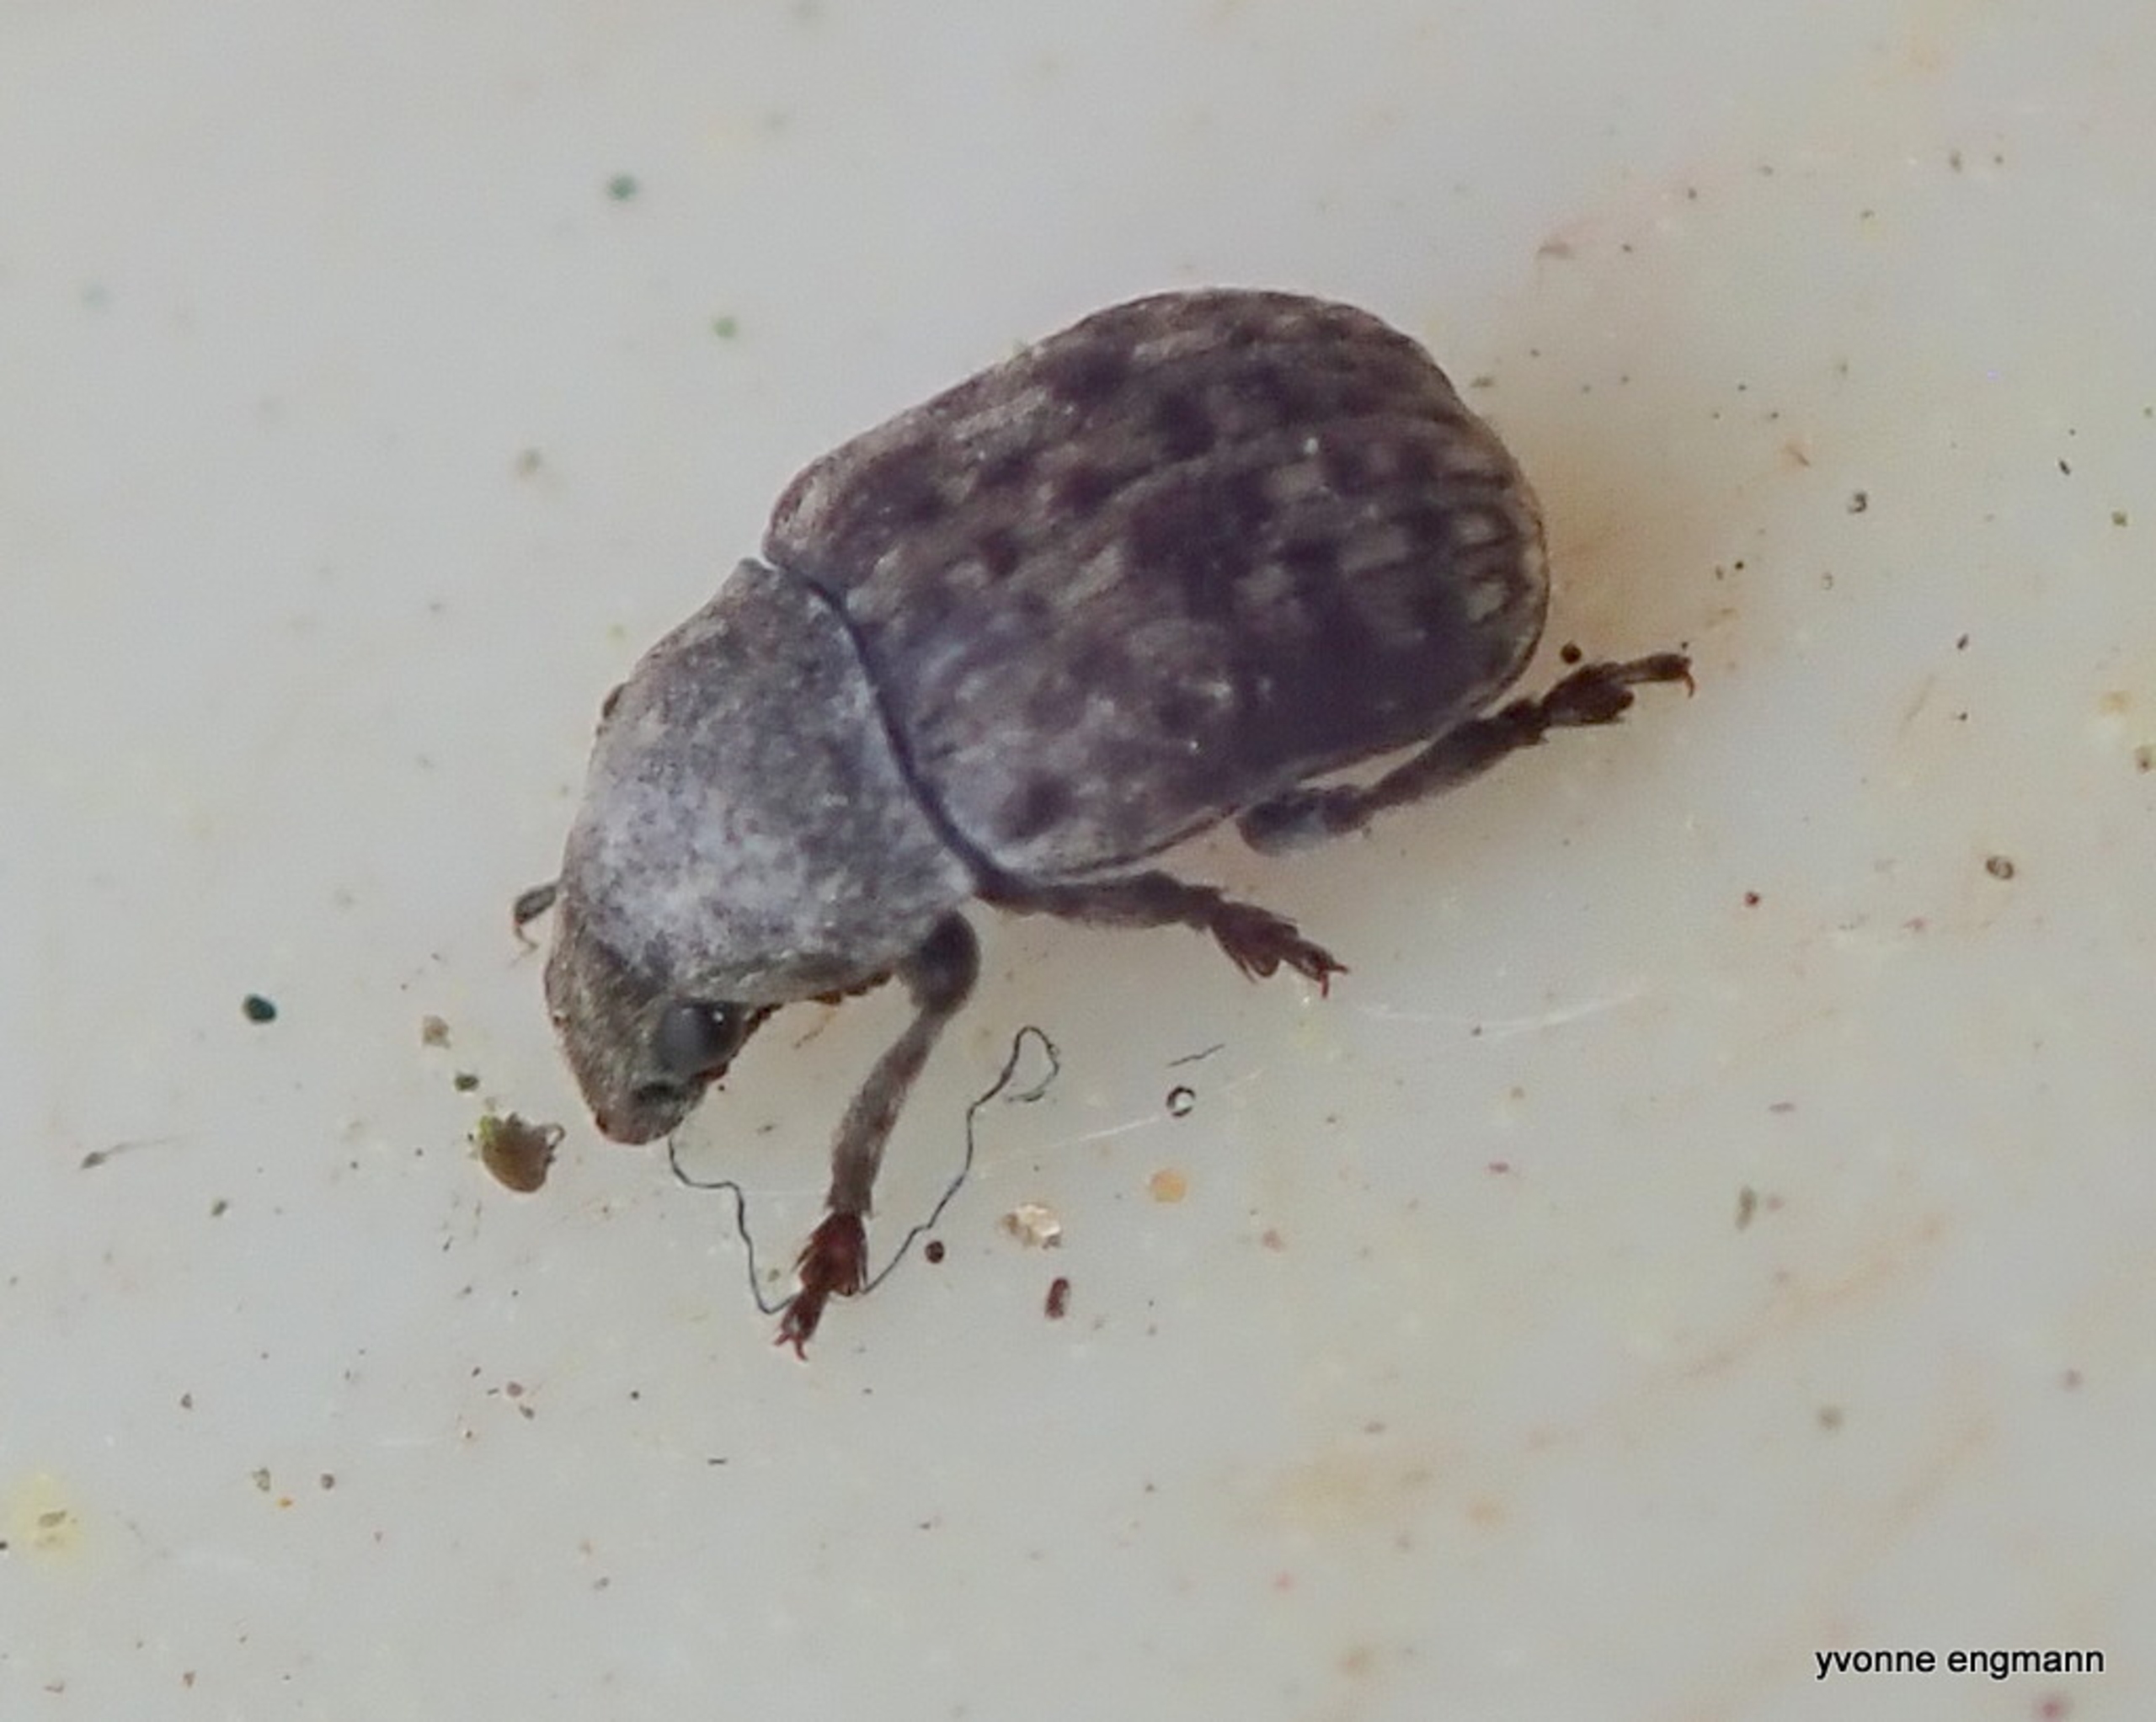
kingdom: Animalia
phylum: Arthropoda
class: Insecta
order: Coleoptera
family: Anthribidae
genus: Anthribus
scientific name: Anthribus nebulosus
